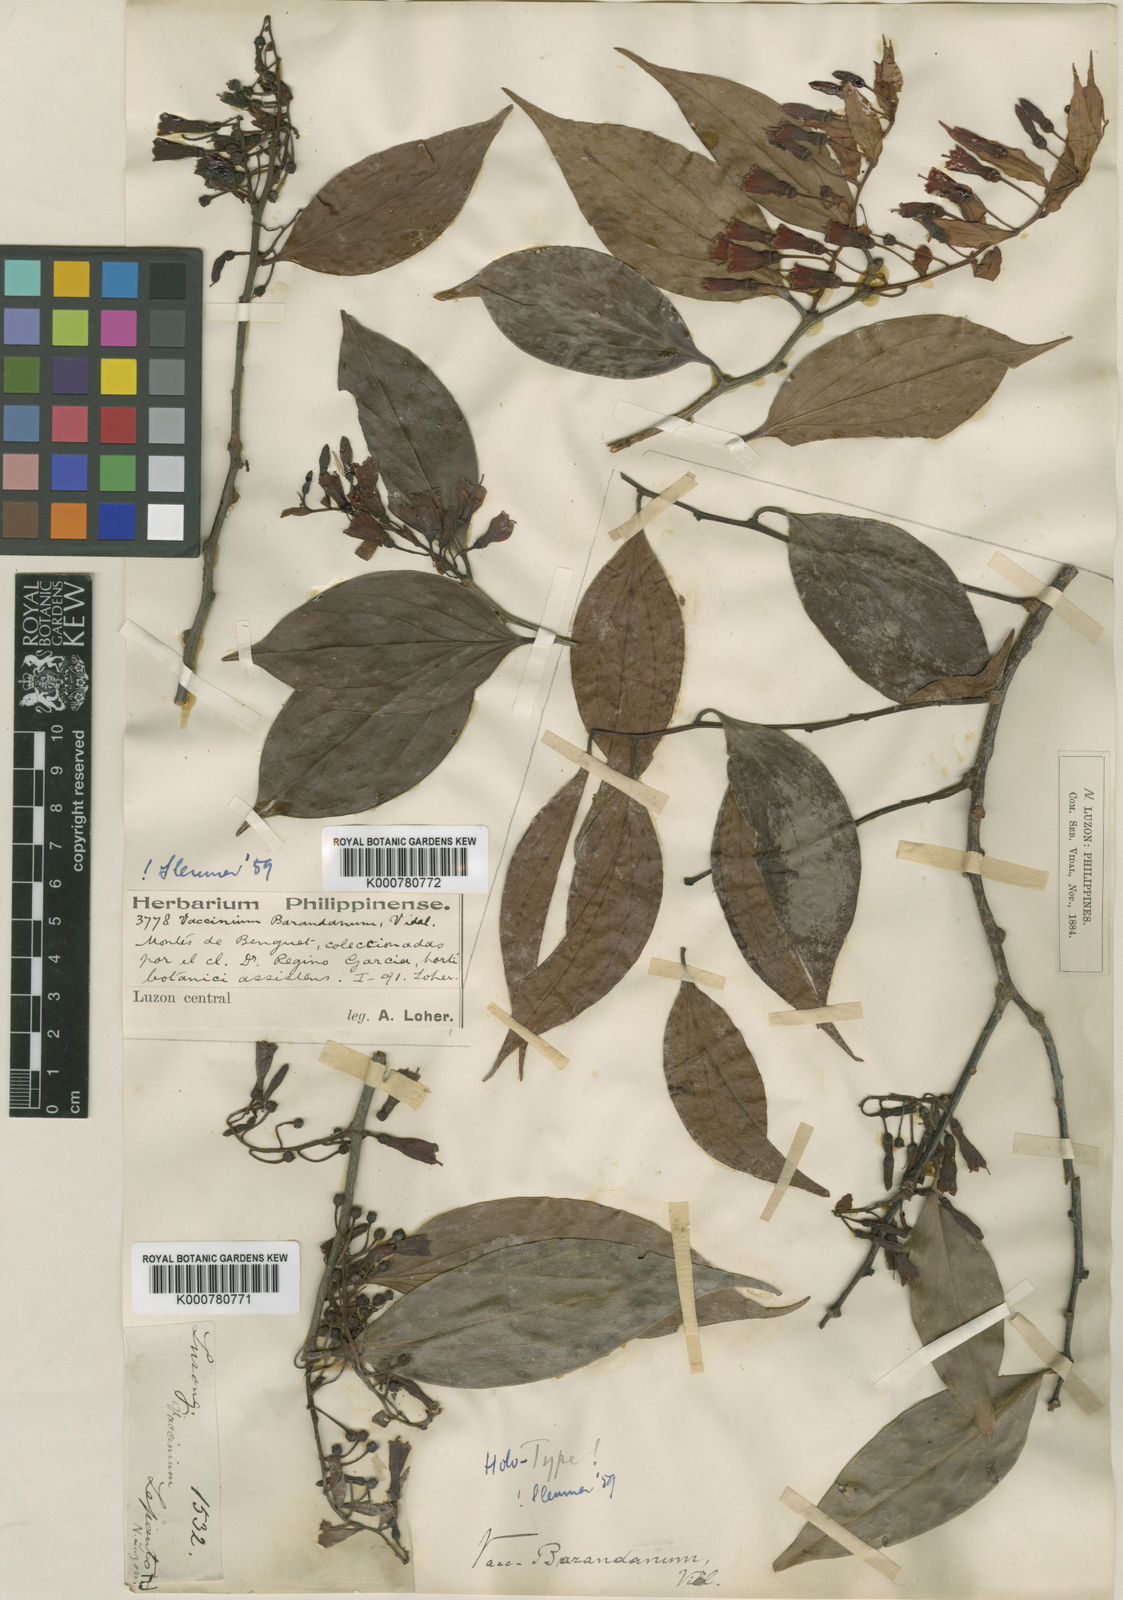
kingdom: Plantae
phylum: Tracheophyta
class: Magnoliopsida
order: Ericales
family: Ericaceae
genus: Vaccinium
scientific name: Vaccinium barandanum
